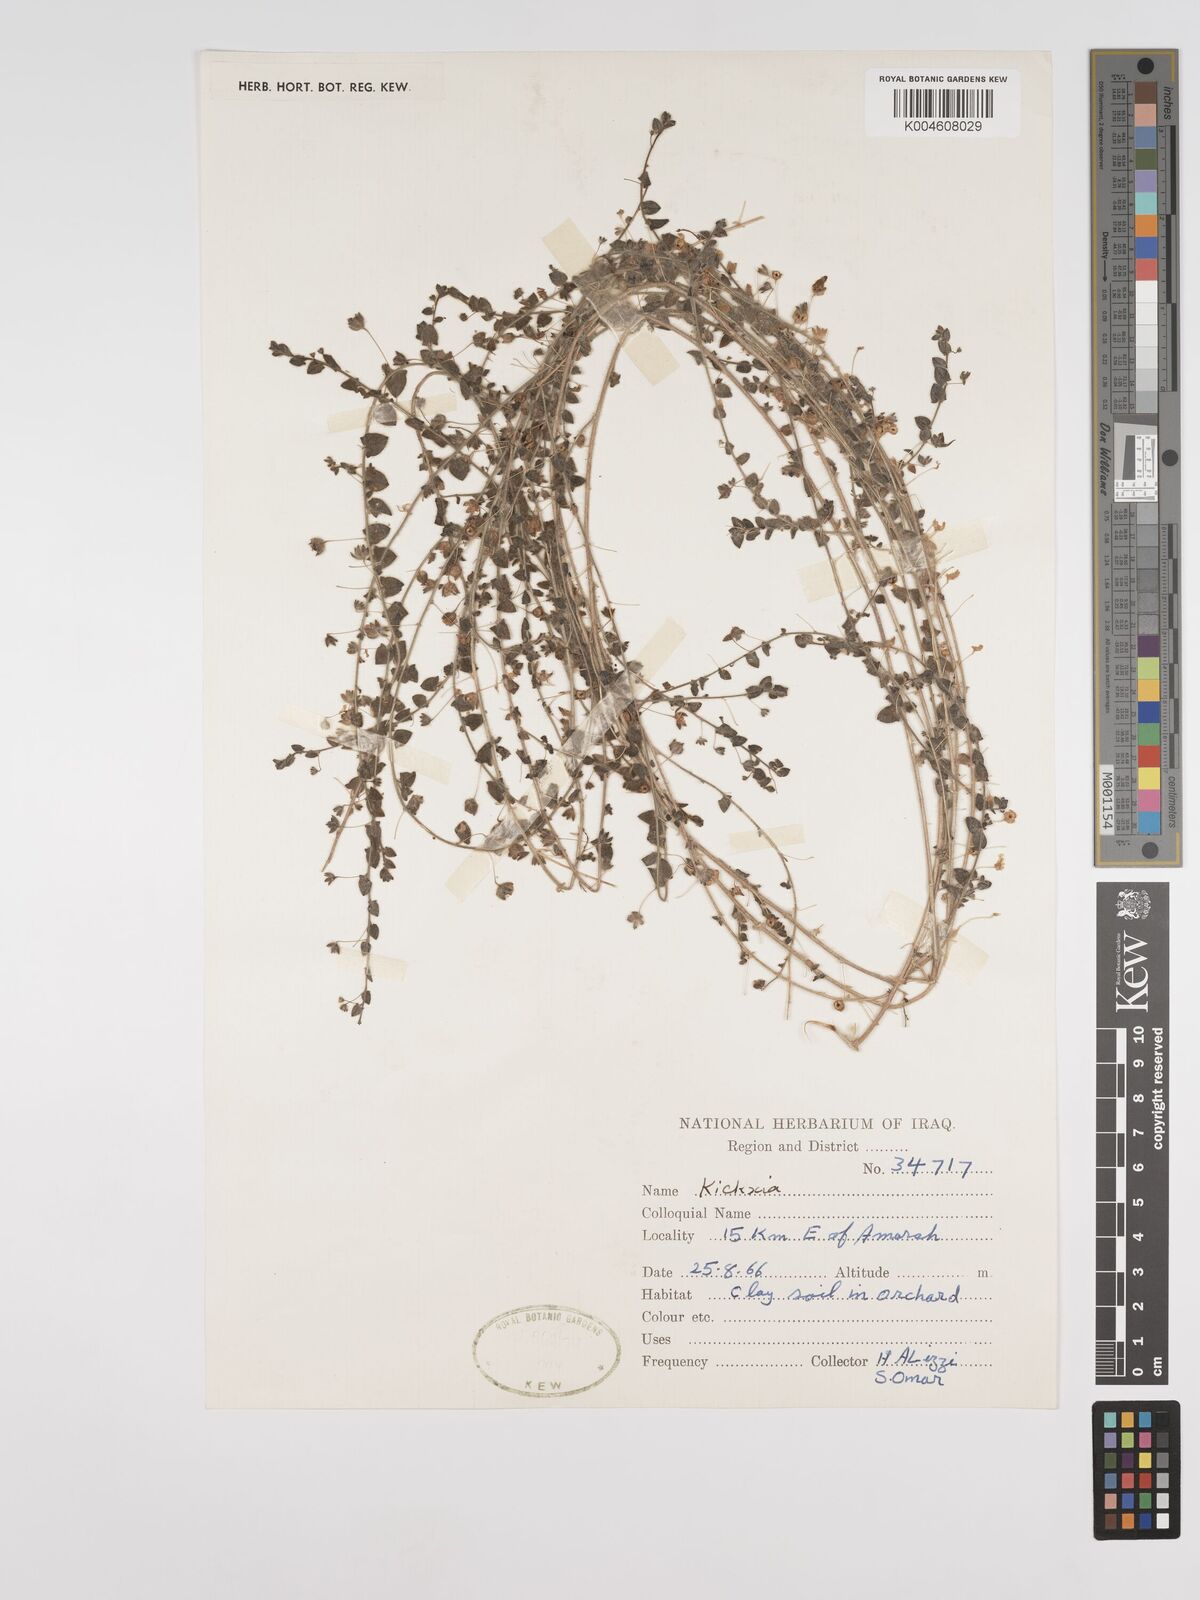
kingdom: Plantae
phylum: Tracheophyta
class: Magnoliopsida
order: Lamiales
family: Plantaginaceae
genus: Kickxia
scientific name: Kickxia elatine
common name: Sharp-leaved fluellen
